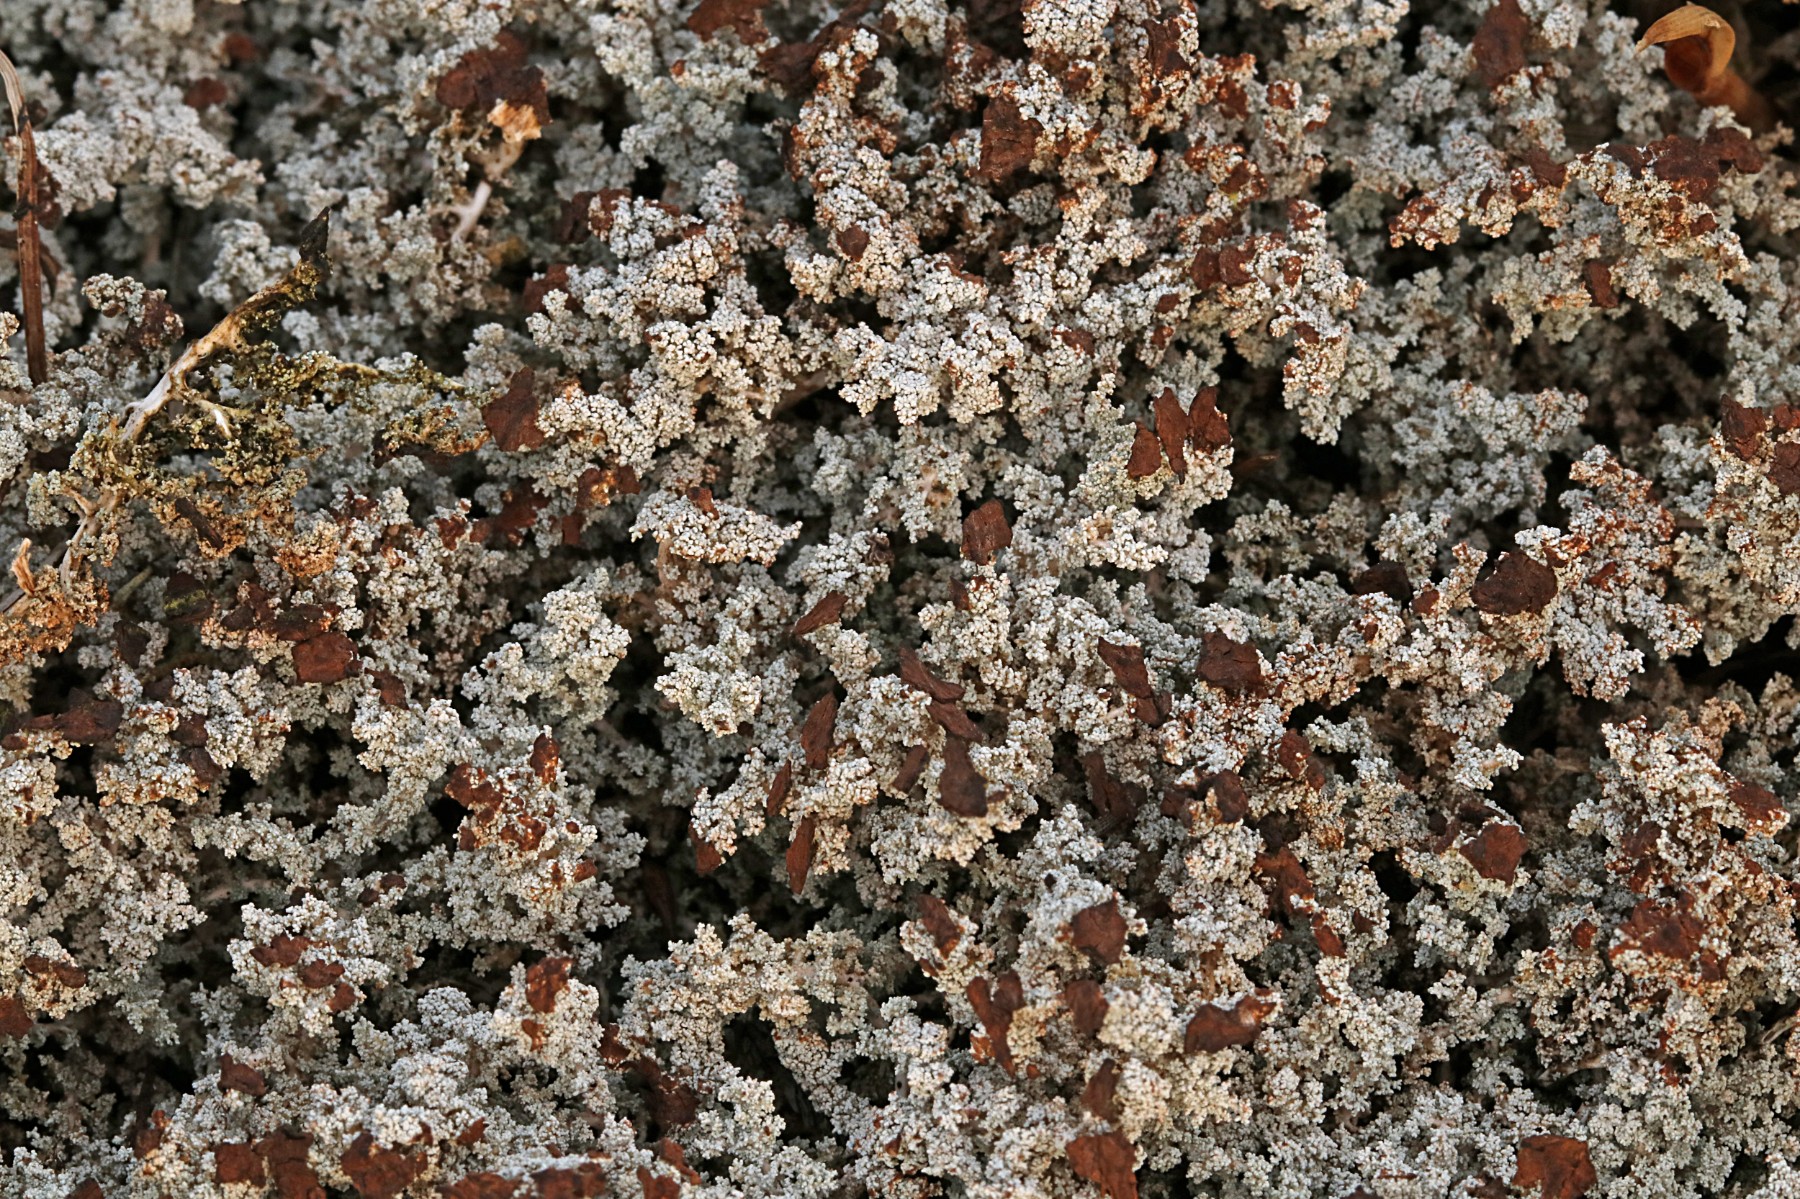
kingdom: Fungi
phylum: Ascomycota
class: Lecanoromycetes
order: Lecanorales
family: Stereocaulaceae
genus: Stereocaulon
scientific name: Stereocaulon paschale
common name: rank korallav
